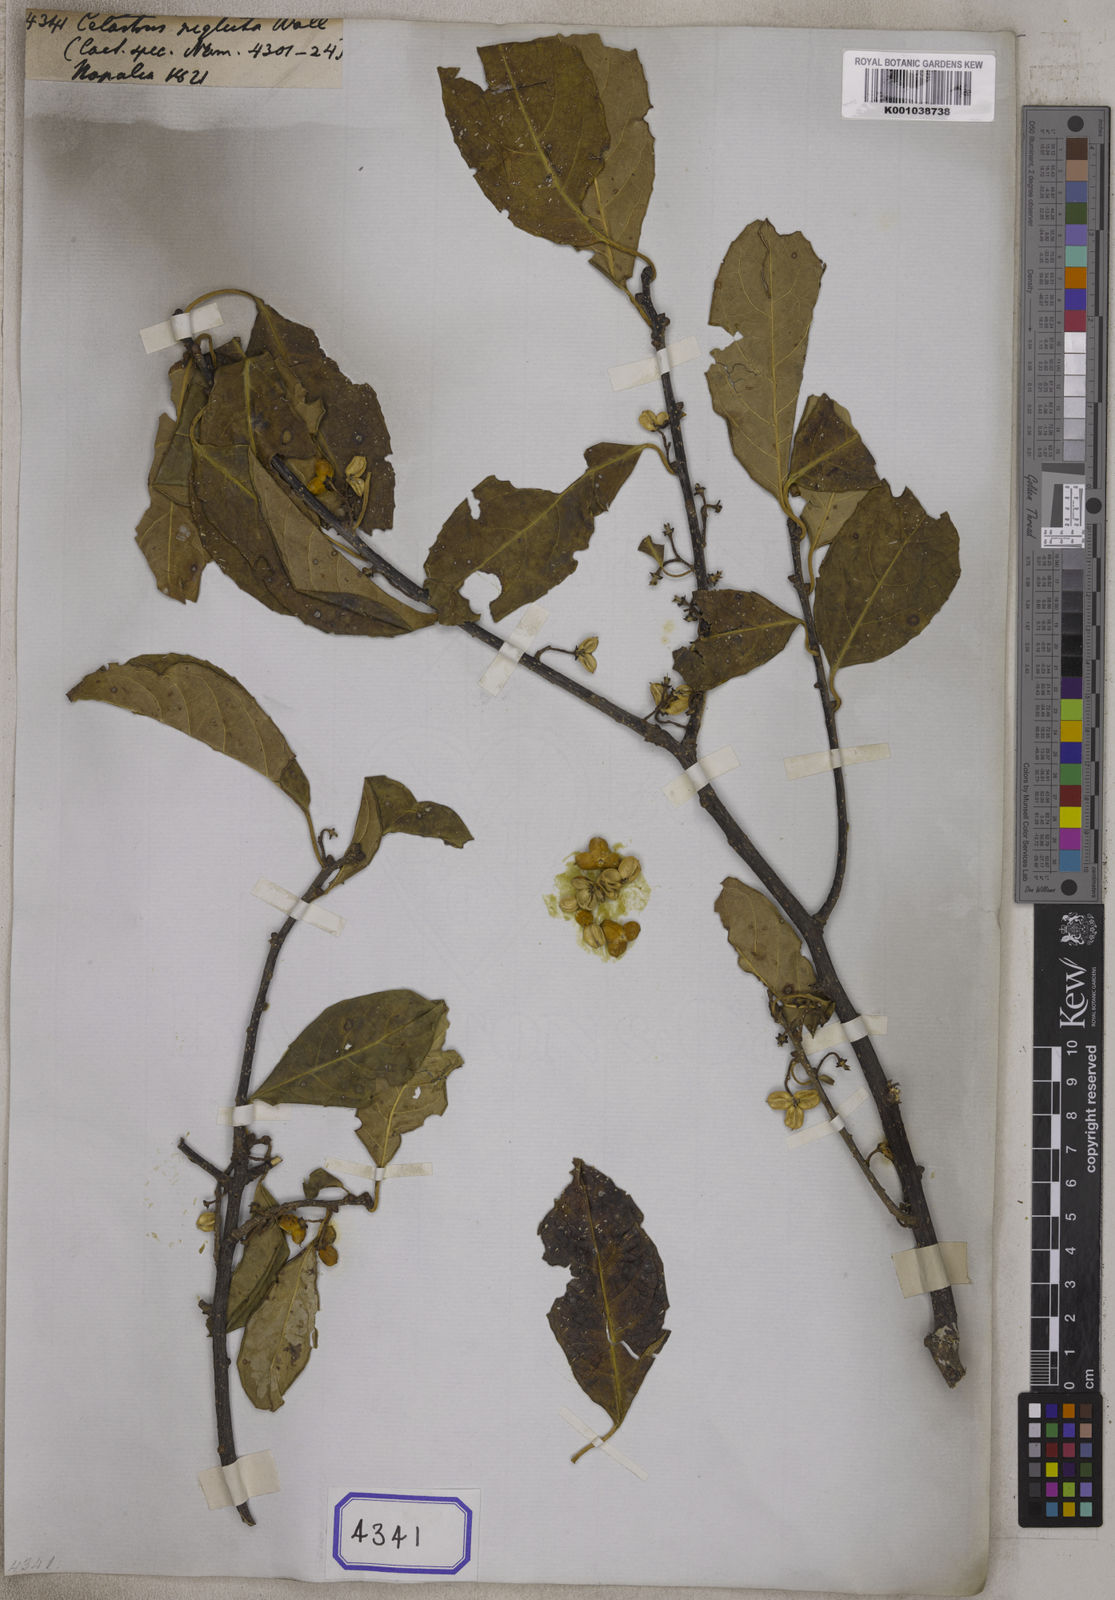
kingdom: Plantae
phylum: Tracheophyta
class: Magnoliopsida
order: Celastrales
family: Celastraceae
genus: Celastrus
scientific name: Celastrus
